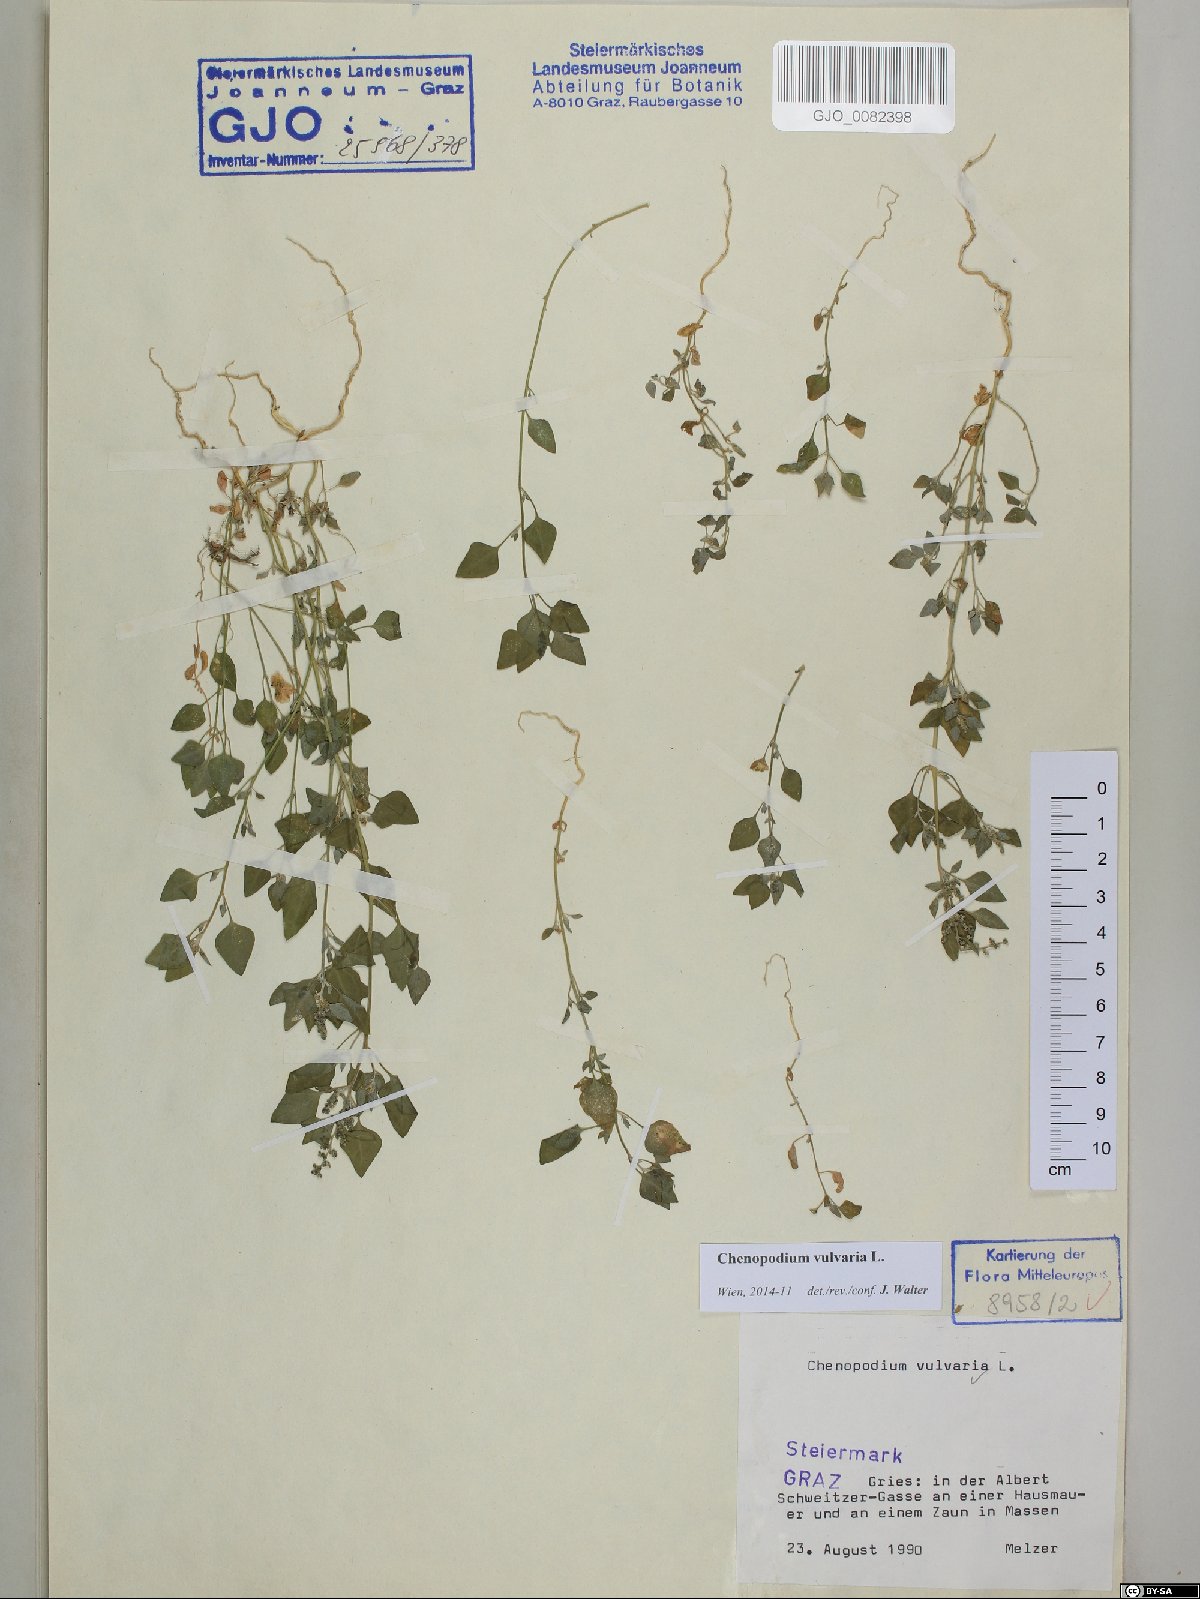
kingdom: Plantae
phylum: Tracheophyta
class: Magnoliopsida
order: Caryophyllales
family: Amaranthaceae
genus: Chenopodium
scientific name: Chenopodium vulvaria
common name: Stinking goosefoot
